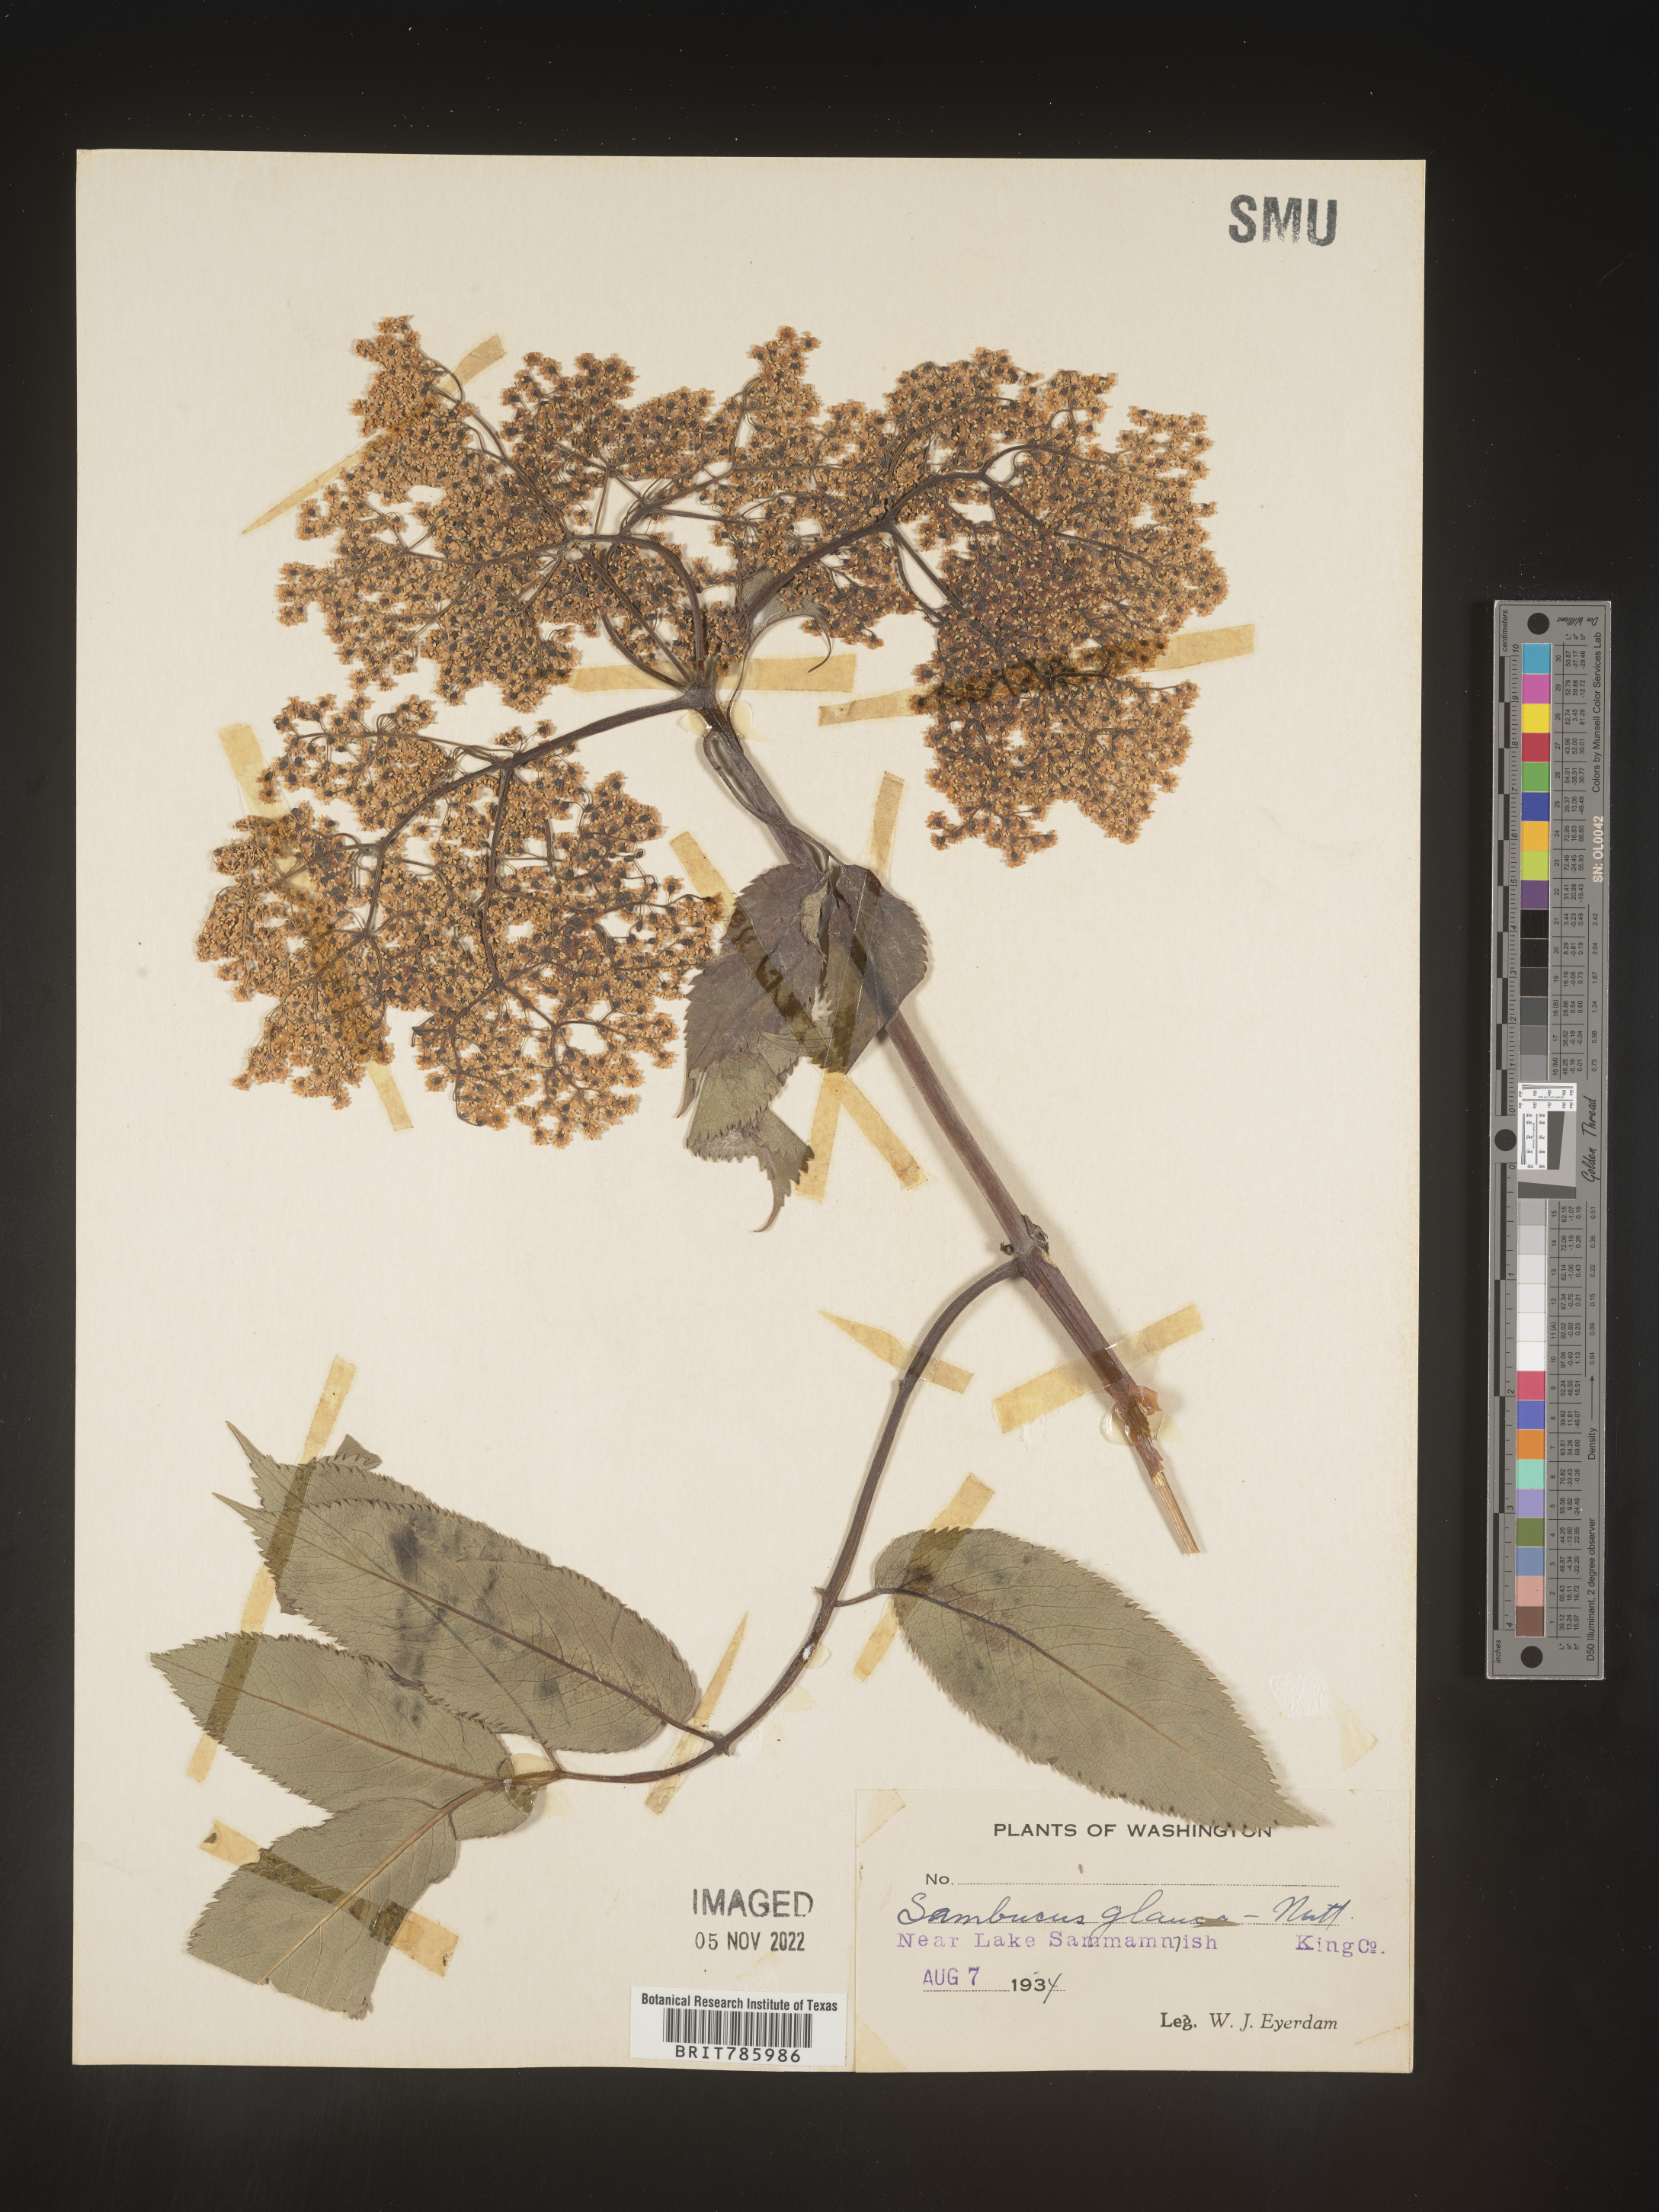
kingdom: Plantae
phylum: Tracheophyta
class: Magnoliopsida
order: Dipsacales
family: Viburnaceae
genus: Sambucus
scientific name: Sambucus
